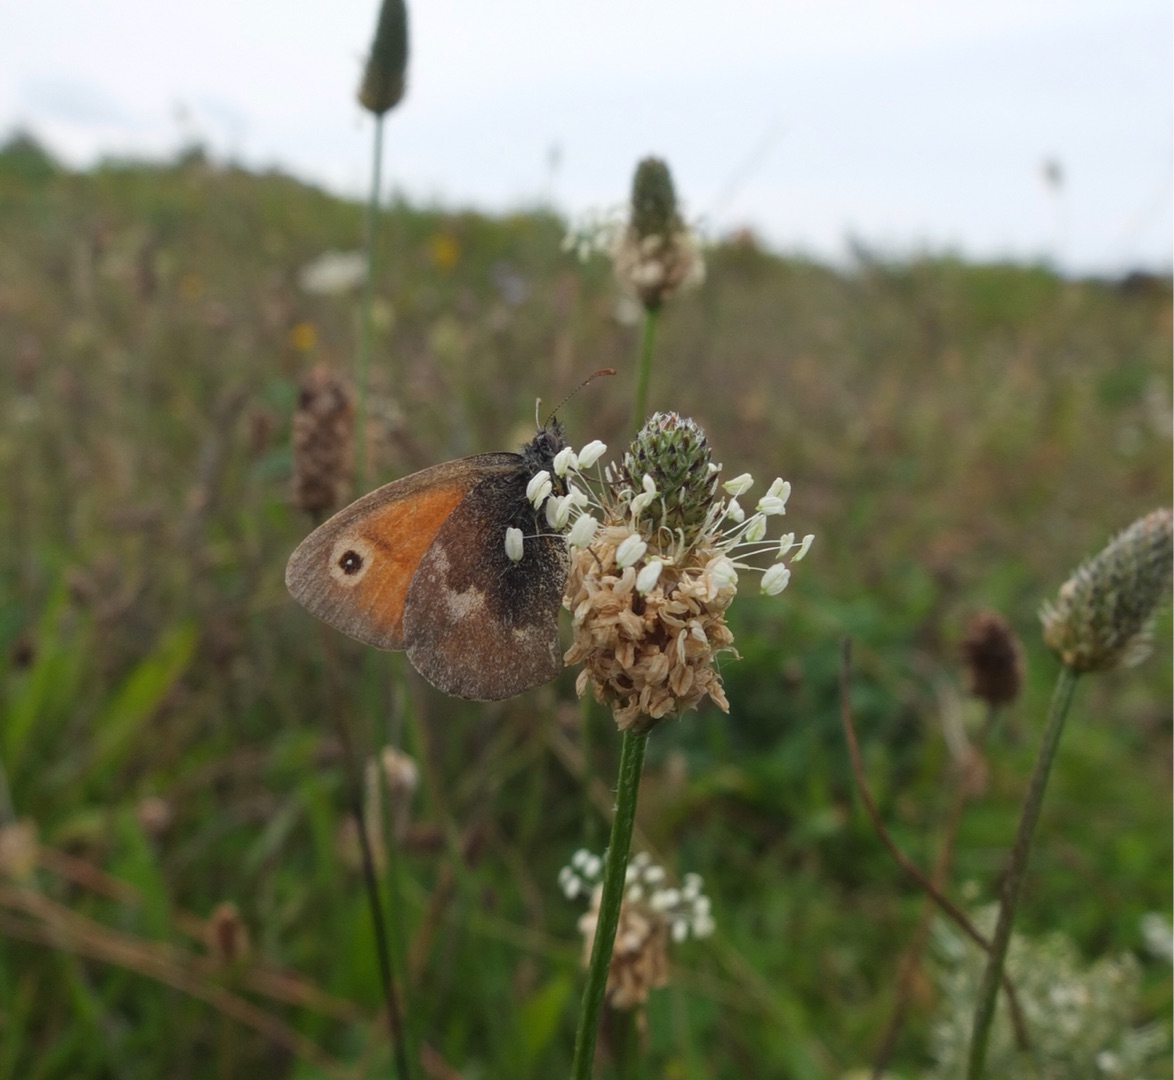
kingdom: Animalia
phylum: Arthropoda
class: Insecta
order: Lepidoptera
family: Nymphalidae
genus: Coenonympha
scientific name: Coenonympha pamphilus
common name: Okkergul randøje
